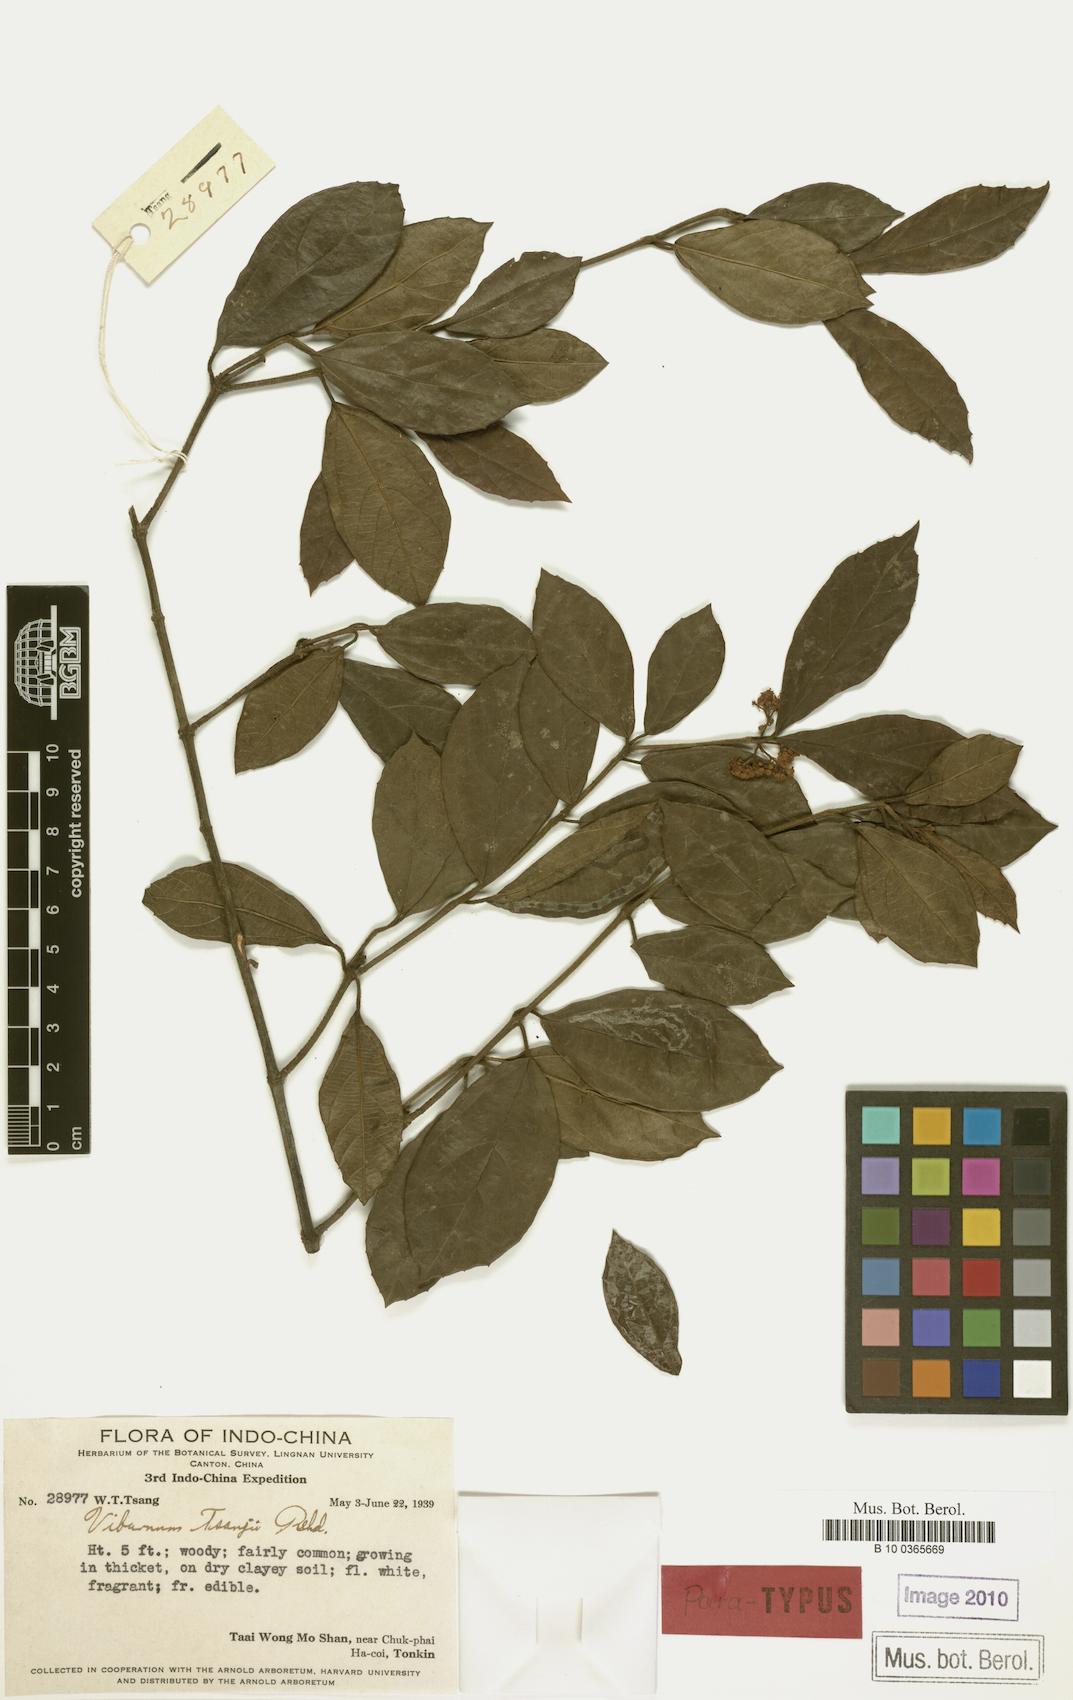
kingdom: Plantae
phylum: Tracheophyta
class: Magnoliopsida
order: Dipsacales
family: Viburnaceae
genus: Viburnum
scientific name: Viburnum hainanense
